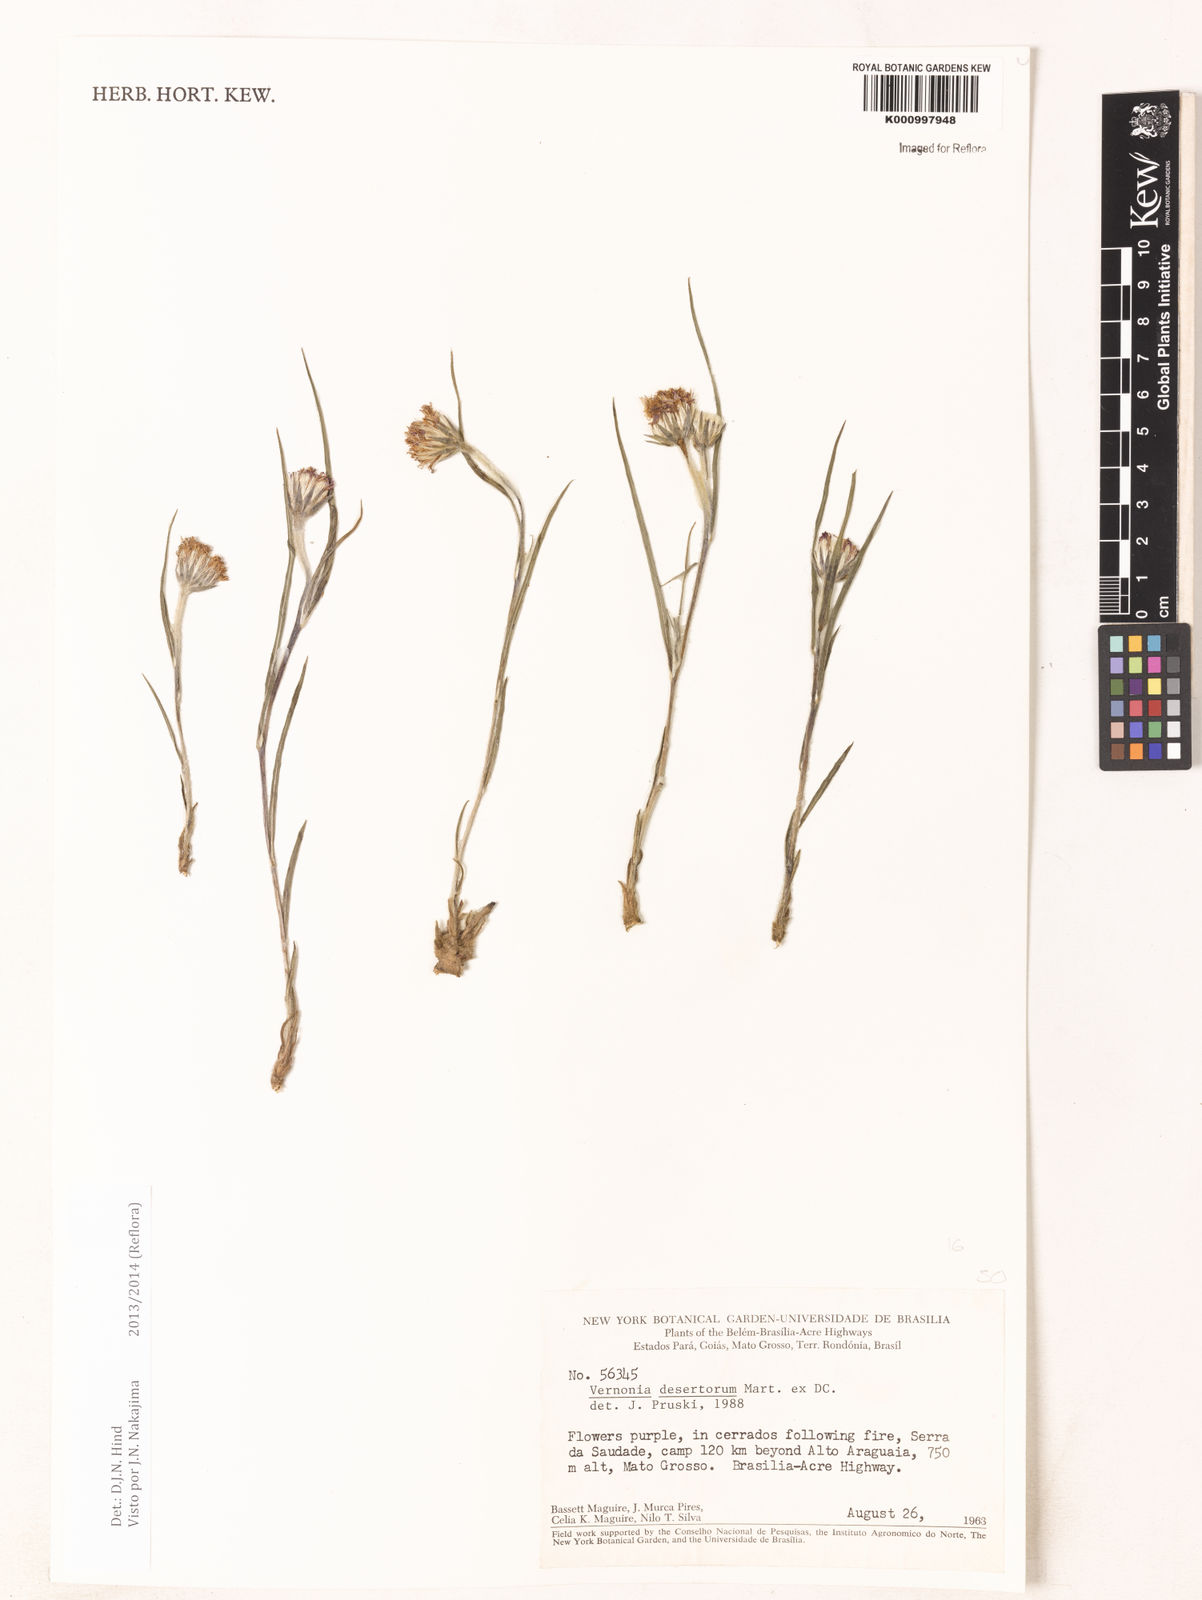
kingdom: Plantae
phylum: Tracheophyta
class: Magnoliopsida
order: Asterales
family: Asteraceae
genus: Chrysolaena
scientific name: Chrysolaena desertorum
